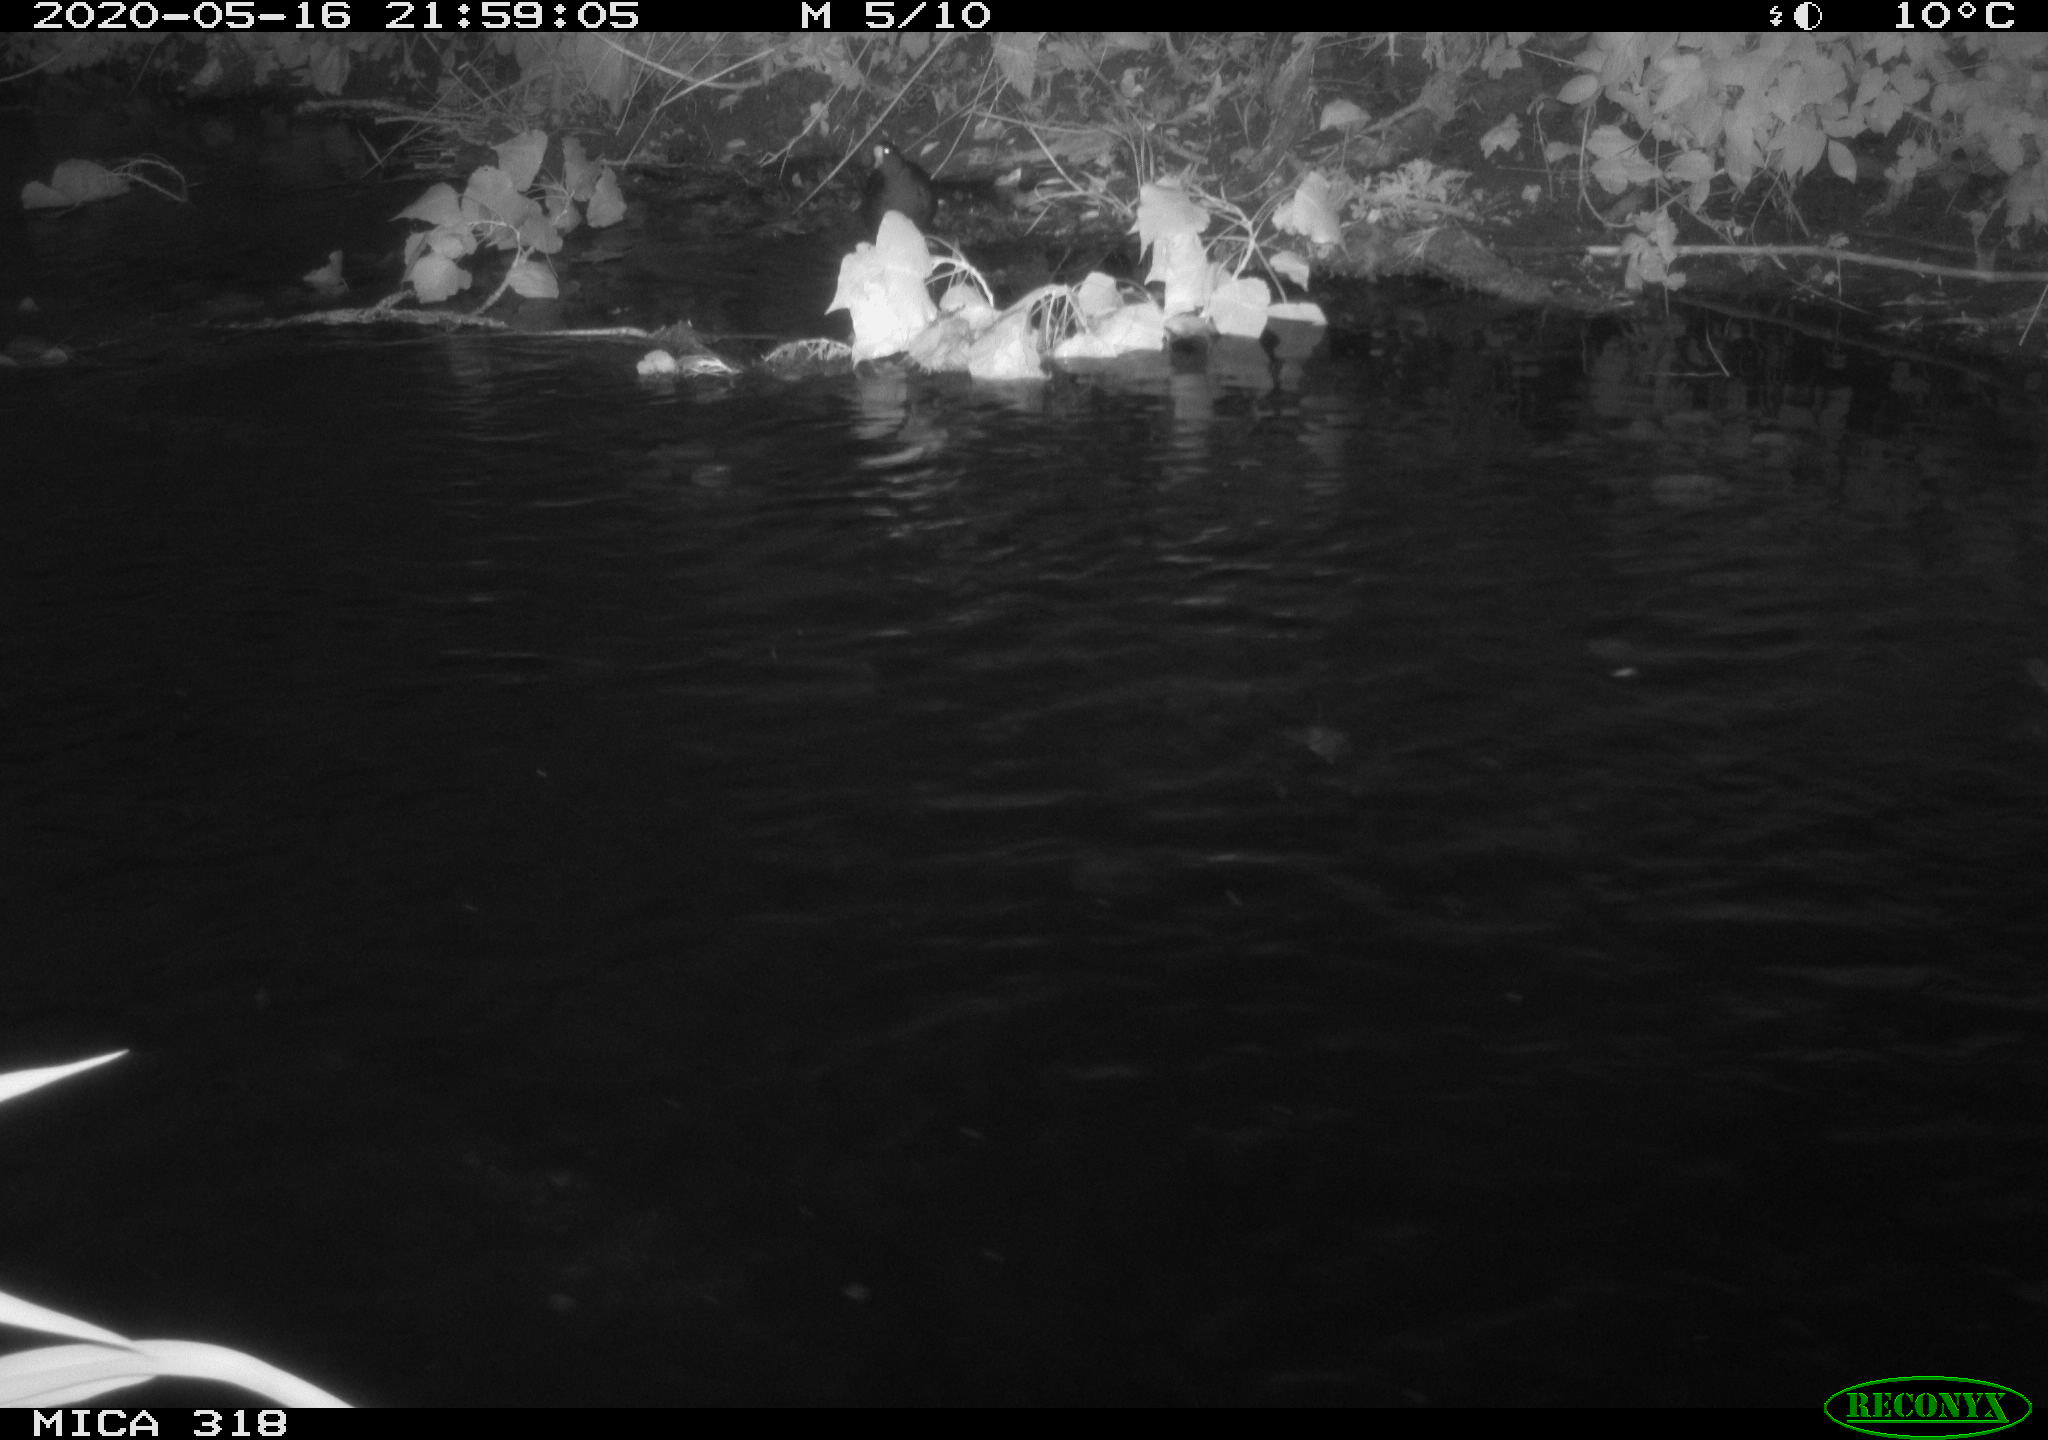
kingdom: Animalia
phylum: Chordata
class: Aves
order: Gruiformes
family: Rallidae
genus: Fulica
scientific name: Fulica atra
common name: Eurasian coot
